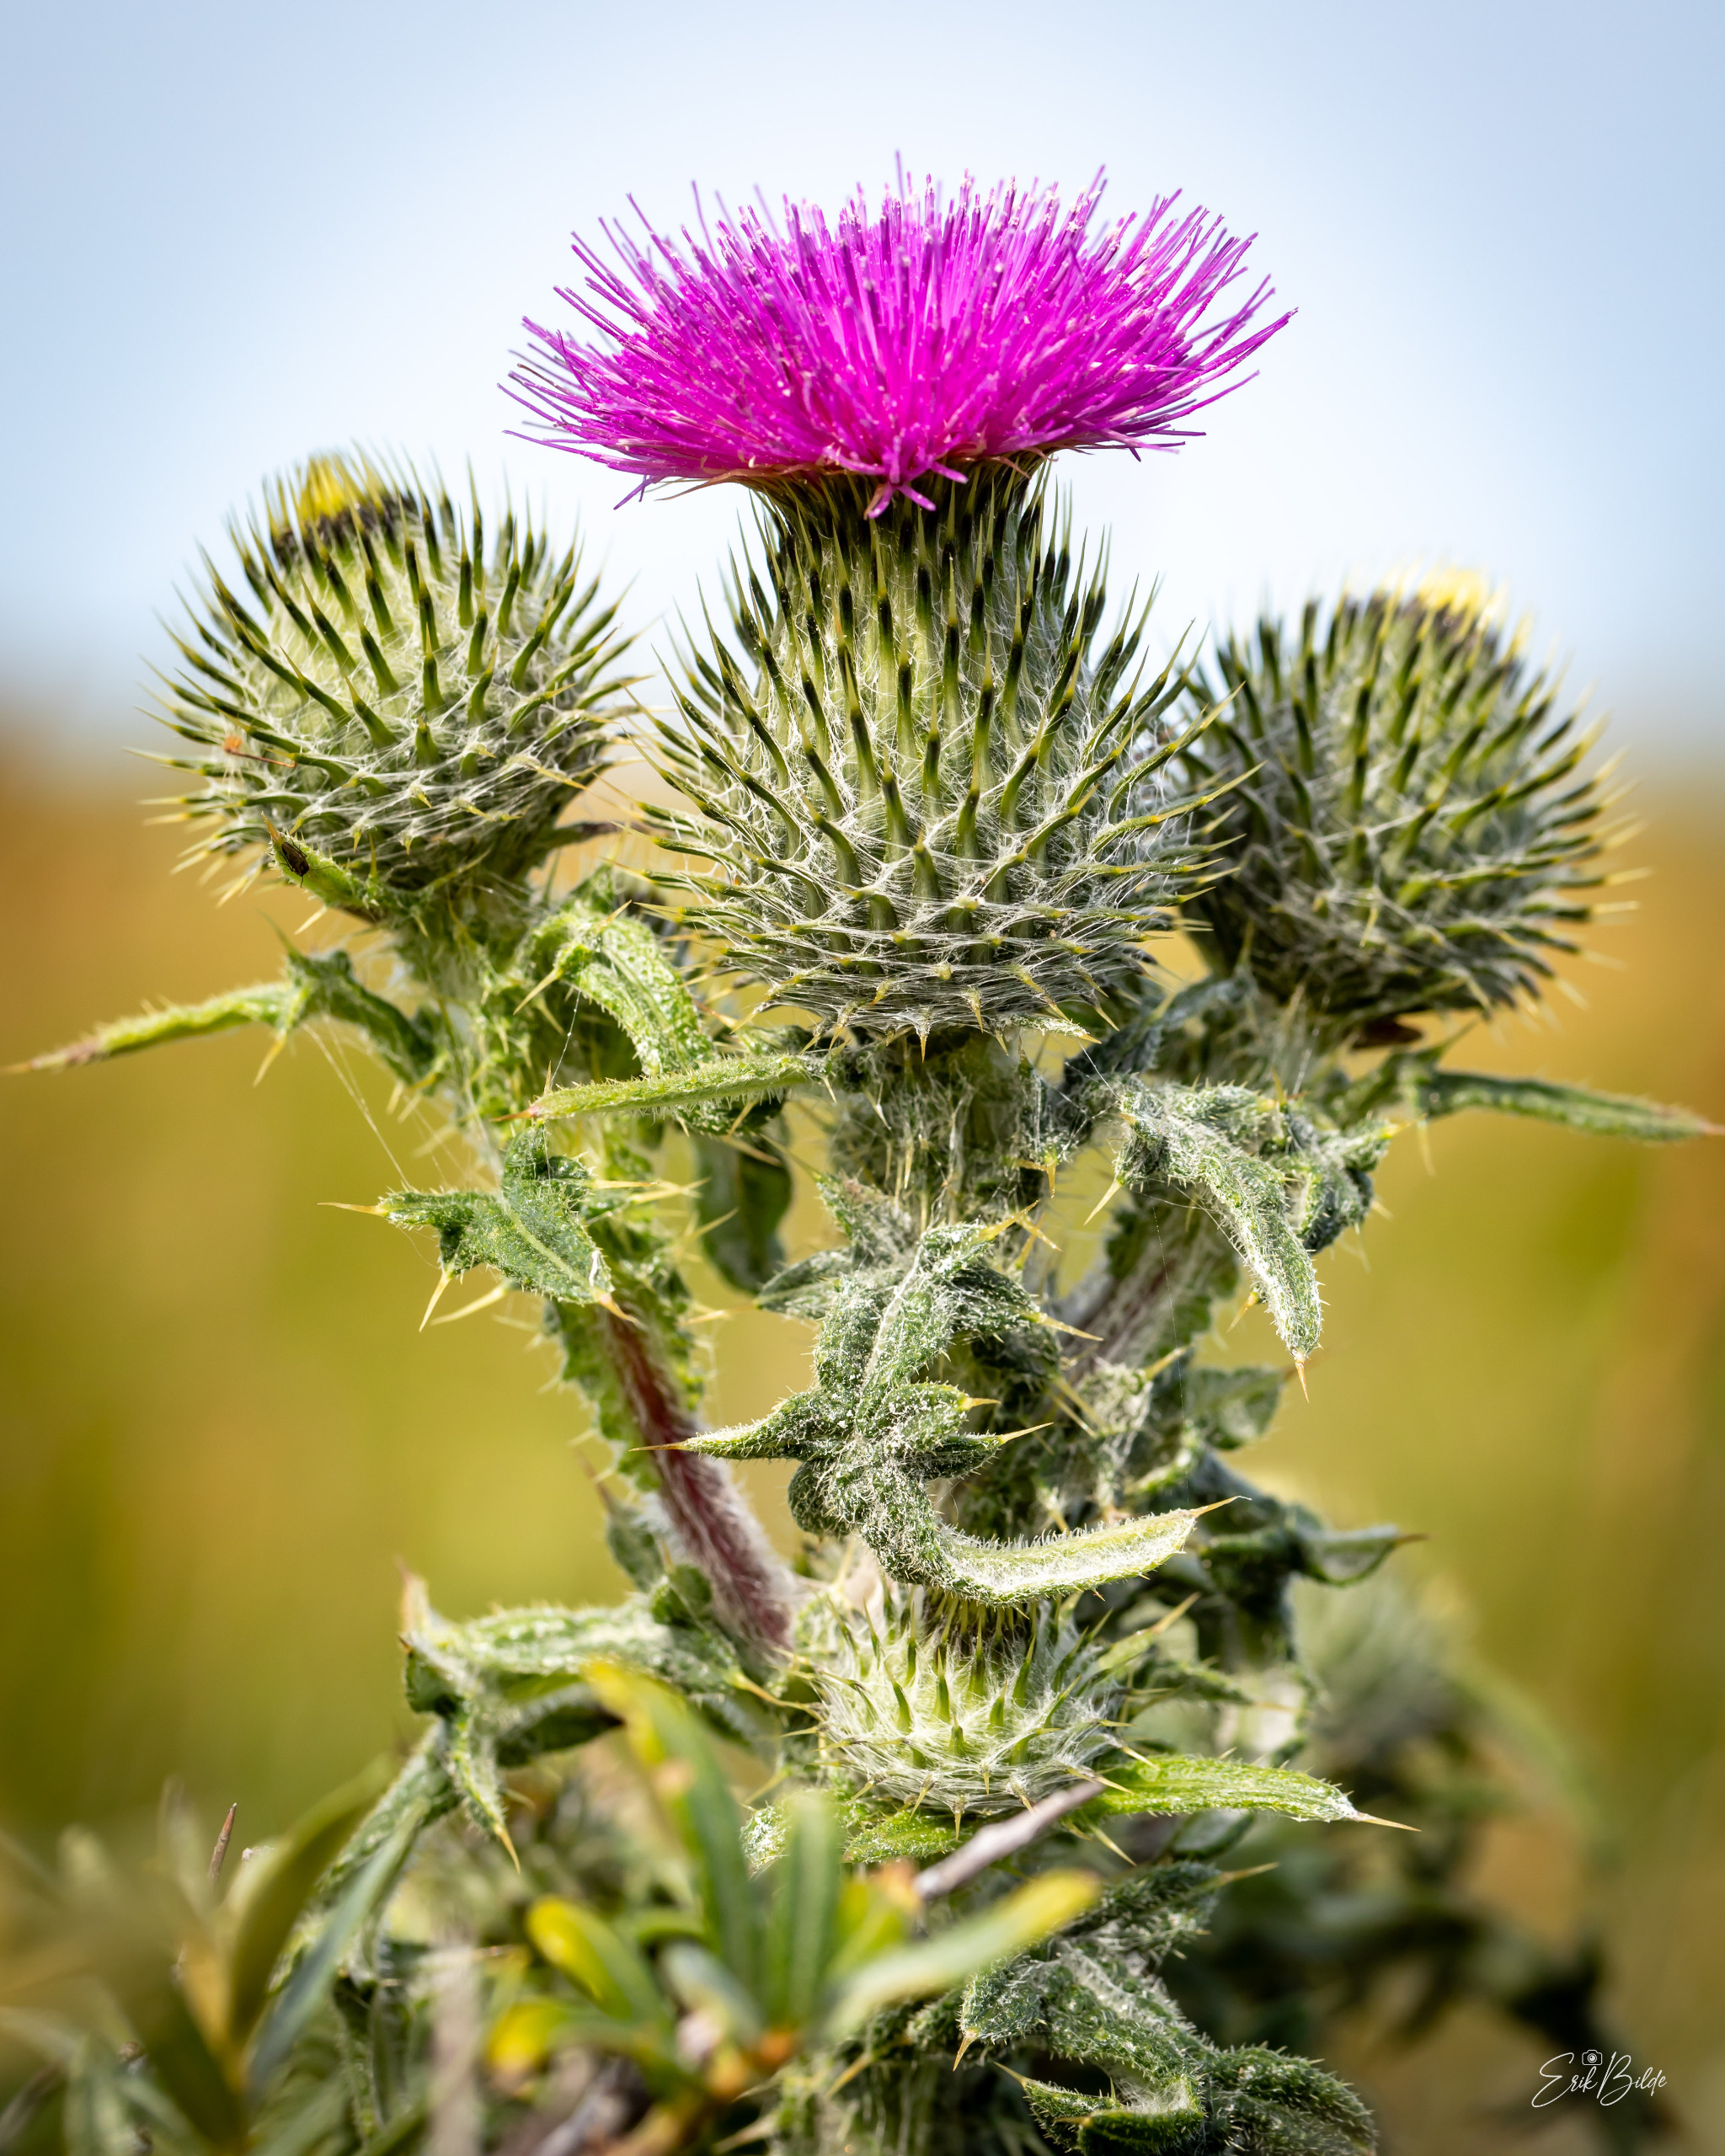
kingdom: Plantae
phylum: Tracheophyta
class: Magnoliopsida
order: Asterales
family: Asteraceae
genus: Cirsium
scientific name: Cirsium vulgare
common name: Horse-tidsel
